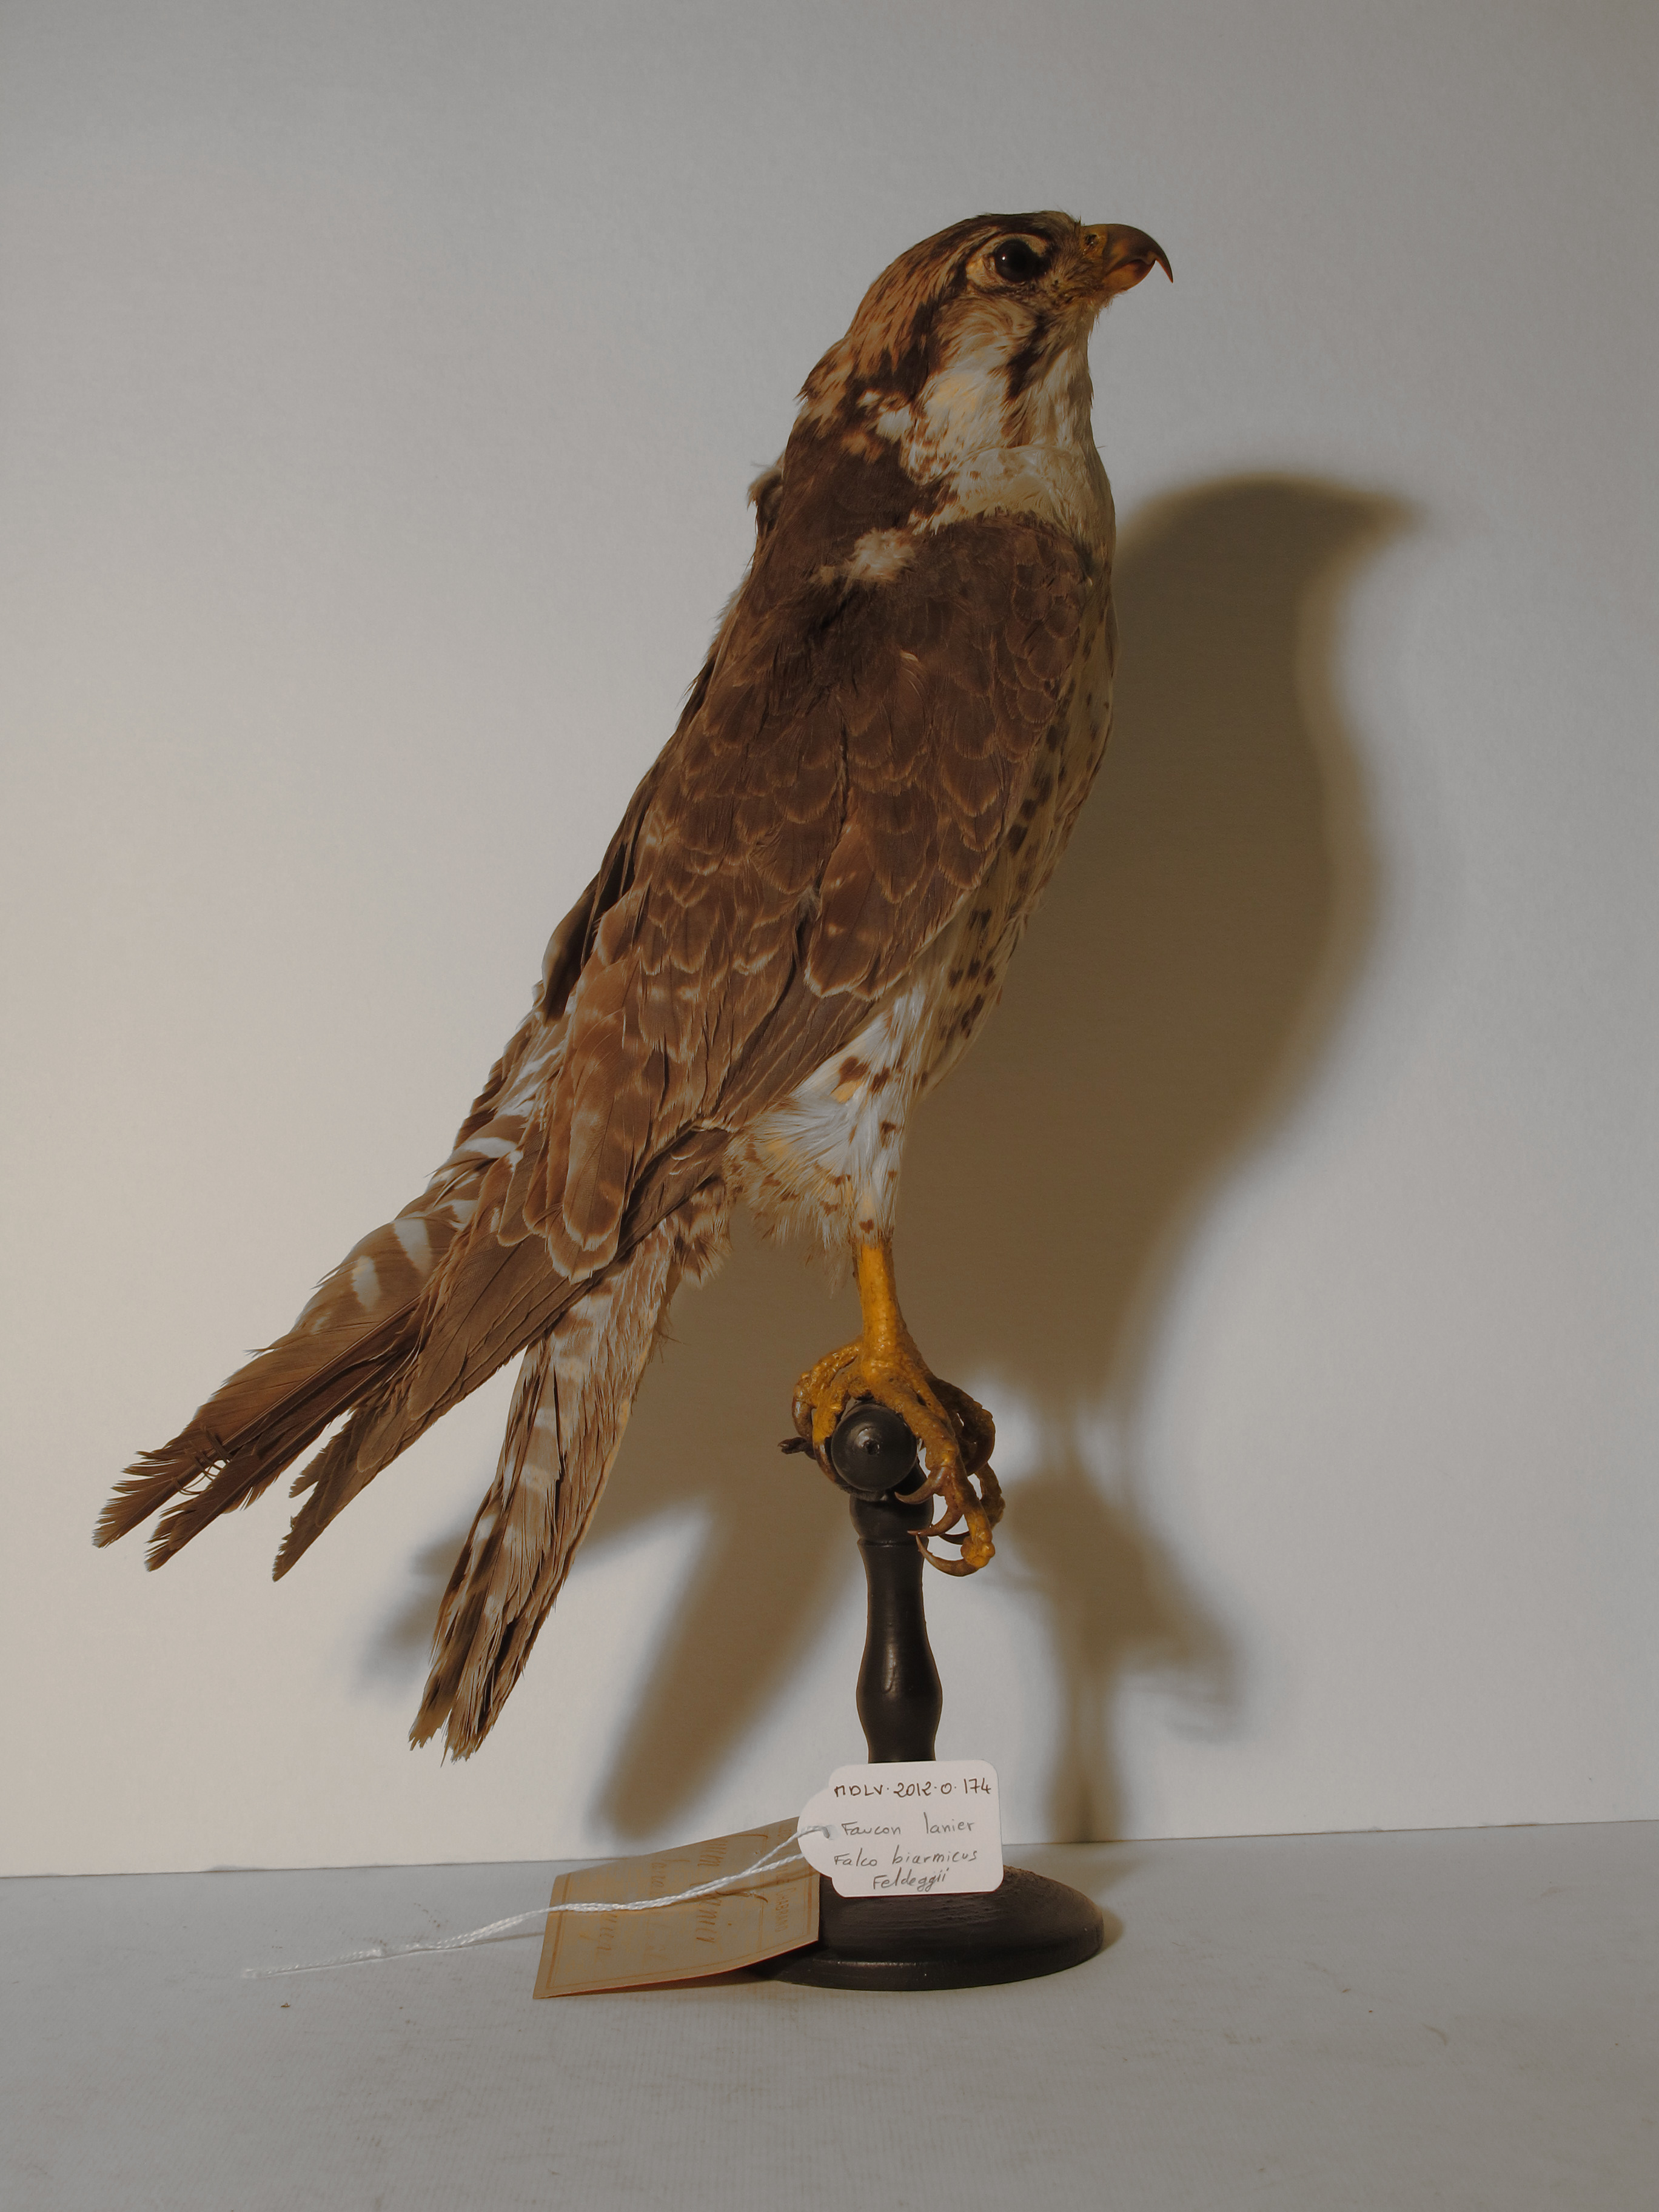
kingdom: Animalia
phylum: Chordata
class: Aves
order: Falconiformes
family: Falconidae
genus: Falco
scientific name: Falco biarmicus
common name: Lanner Falcon
